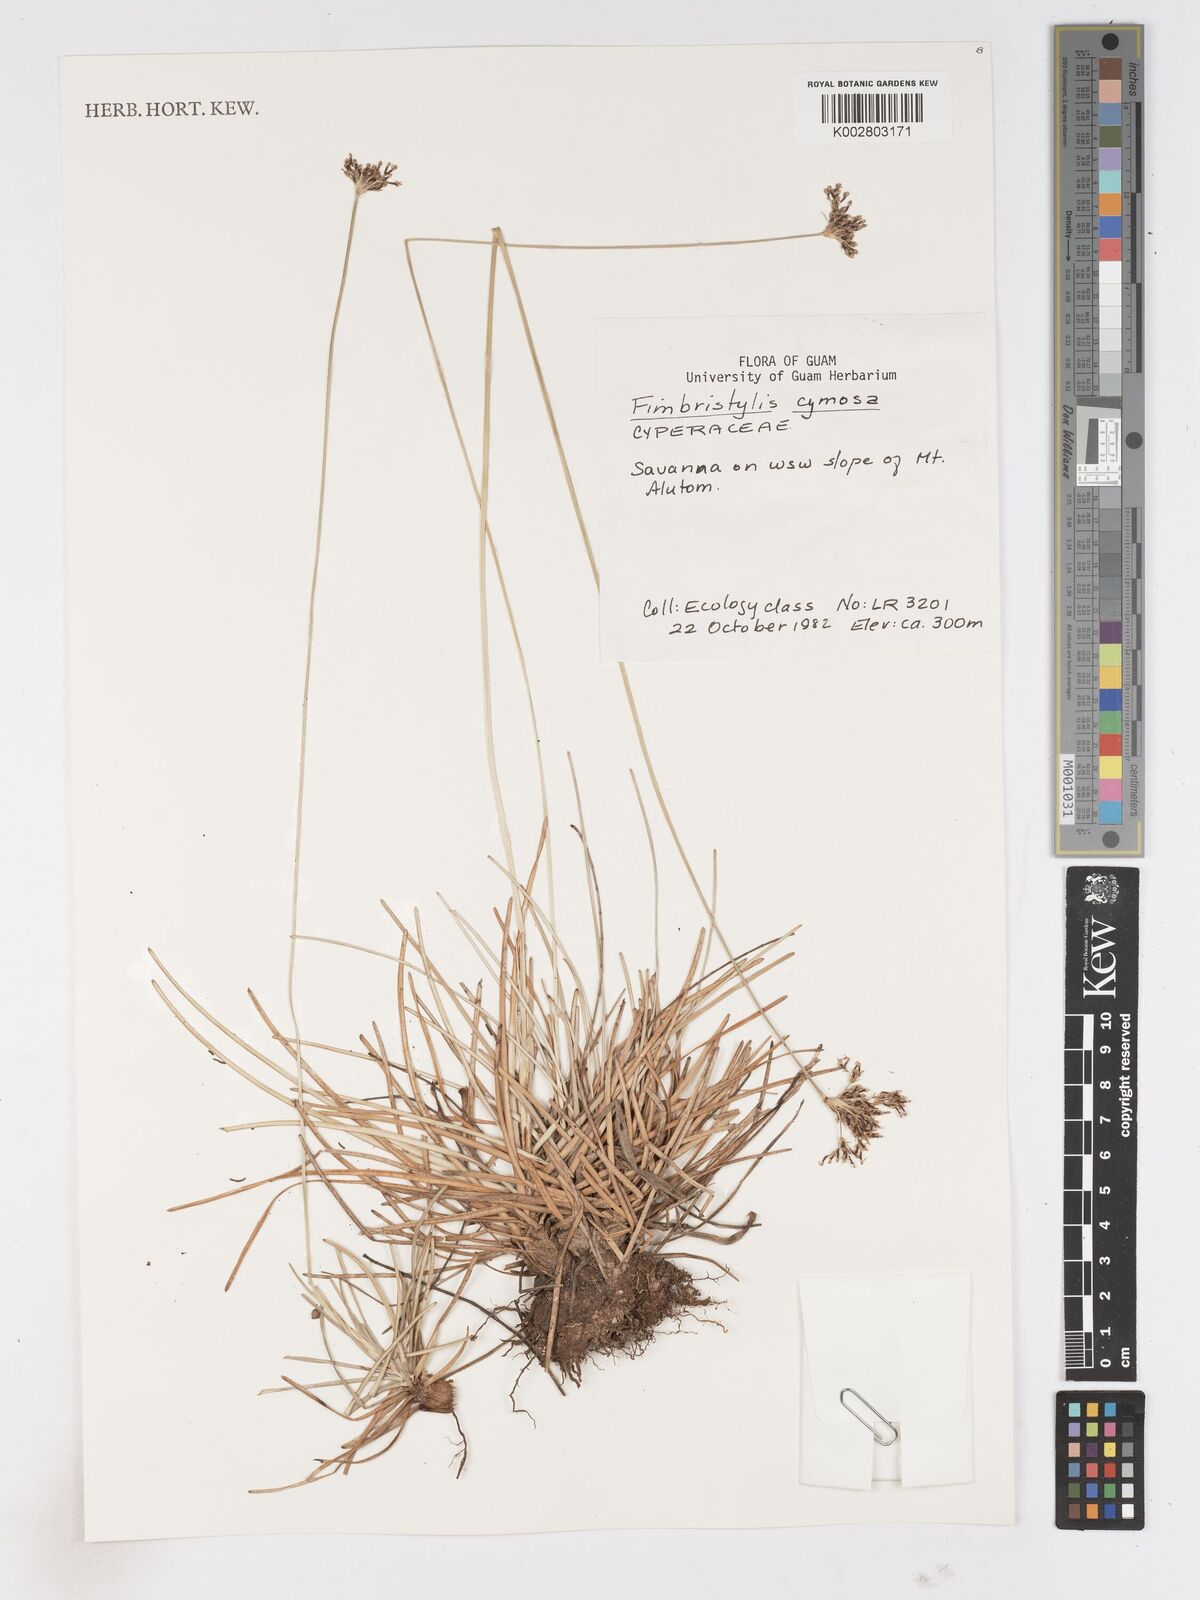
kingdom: Plantae
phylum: Tracheophyta
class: Liliopsida
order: Poales
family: Cyperaceae
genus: Fimbristylis
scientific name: Fimbristylis cymosa
